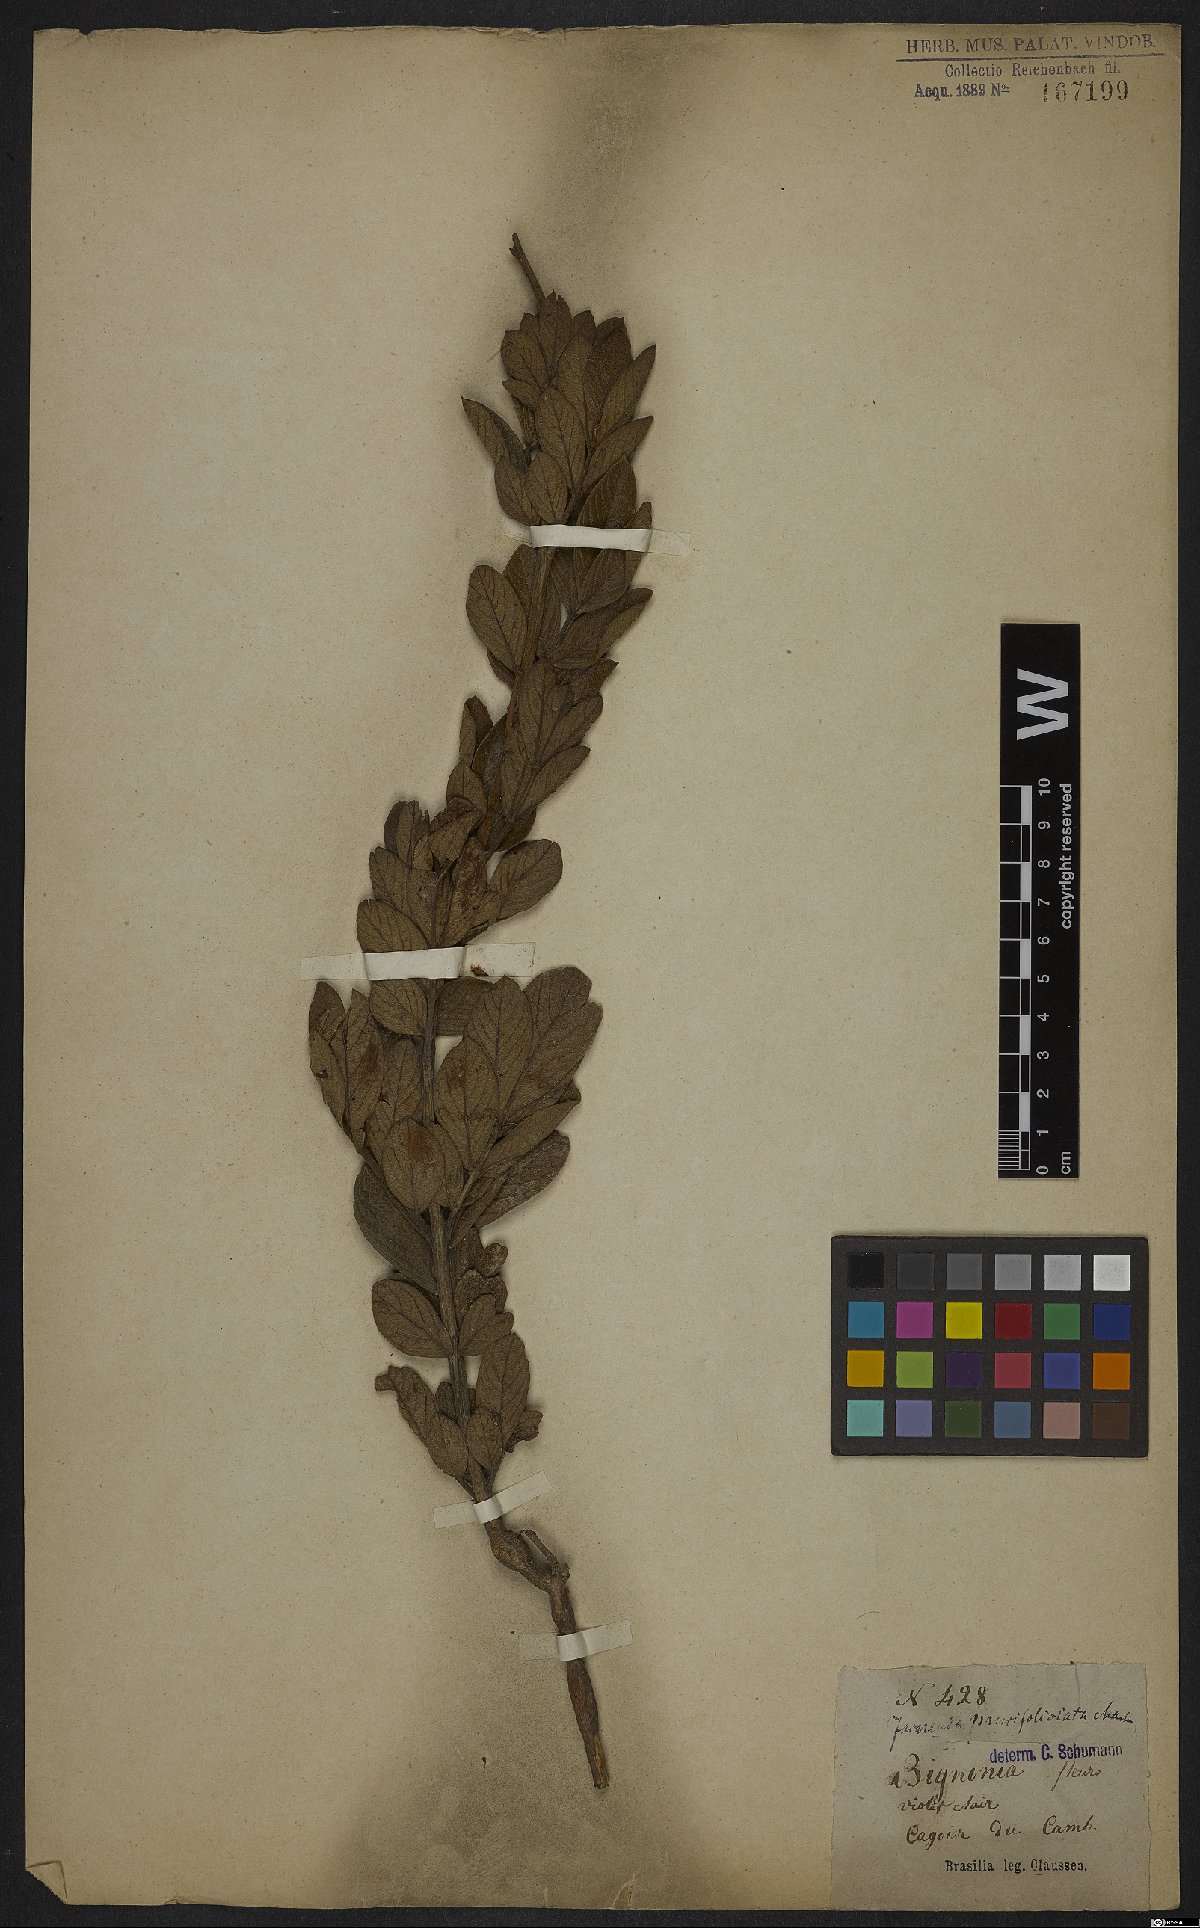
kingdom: Plantae
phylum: Tracheophyta
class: Magnoliopsida
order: Lamiales
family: Bignoniaceae
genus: Jacaranda
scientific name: Jacaranda paucifoliolata
